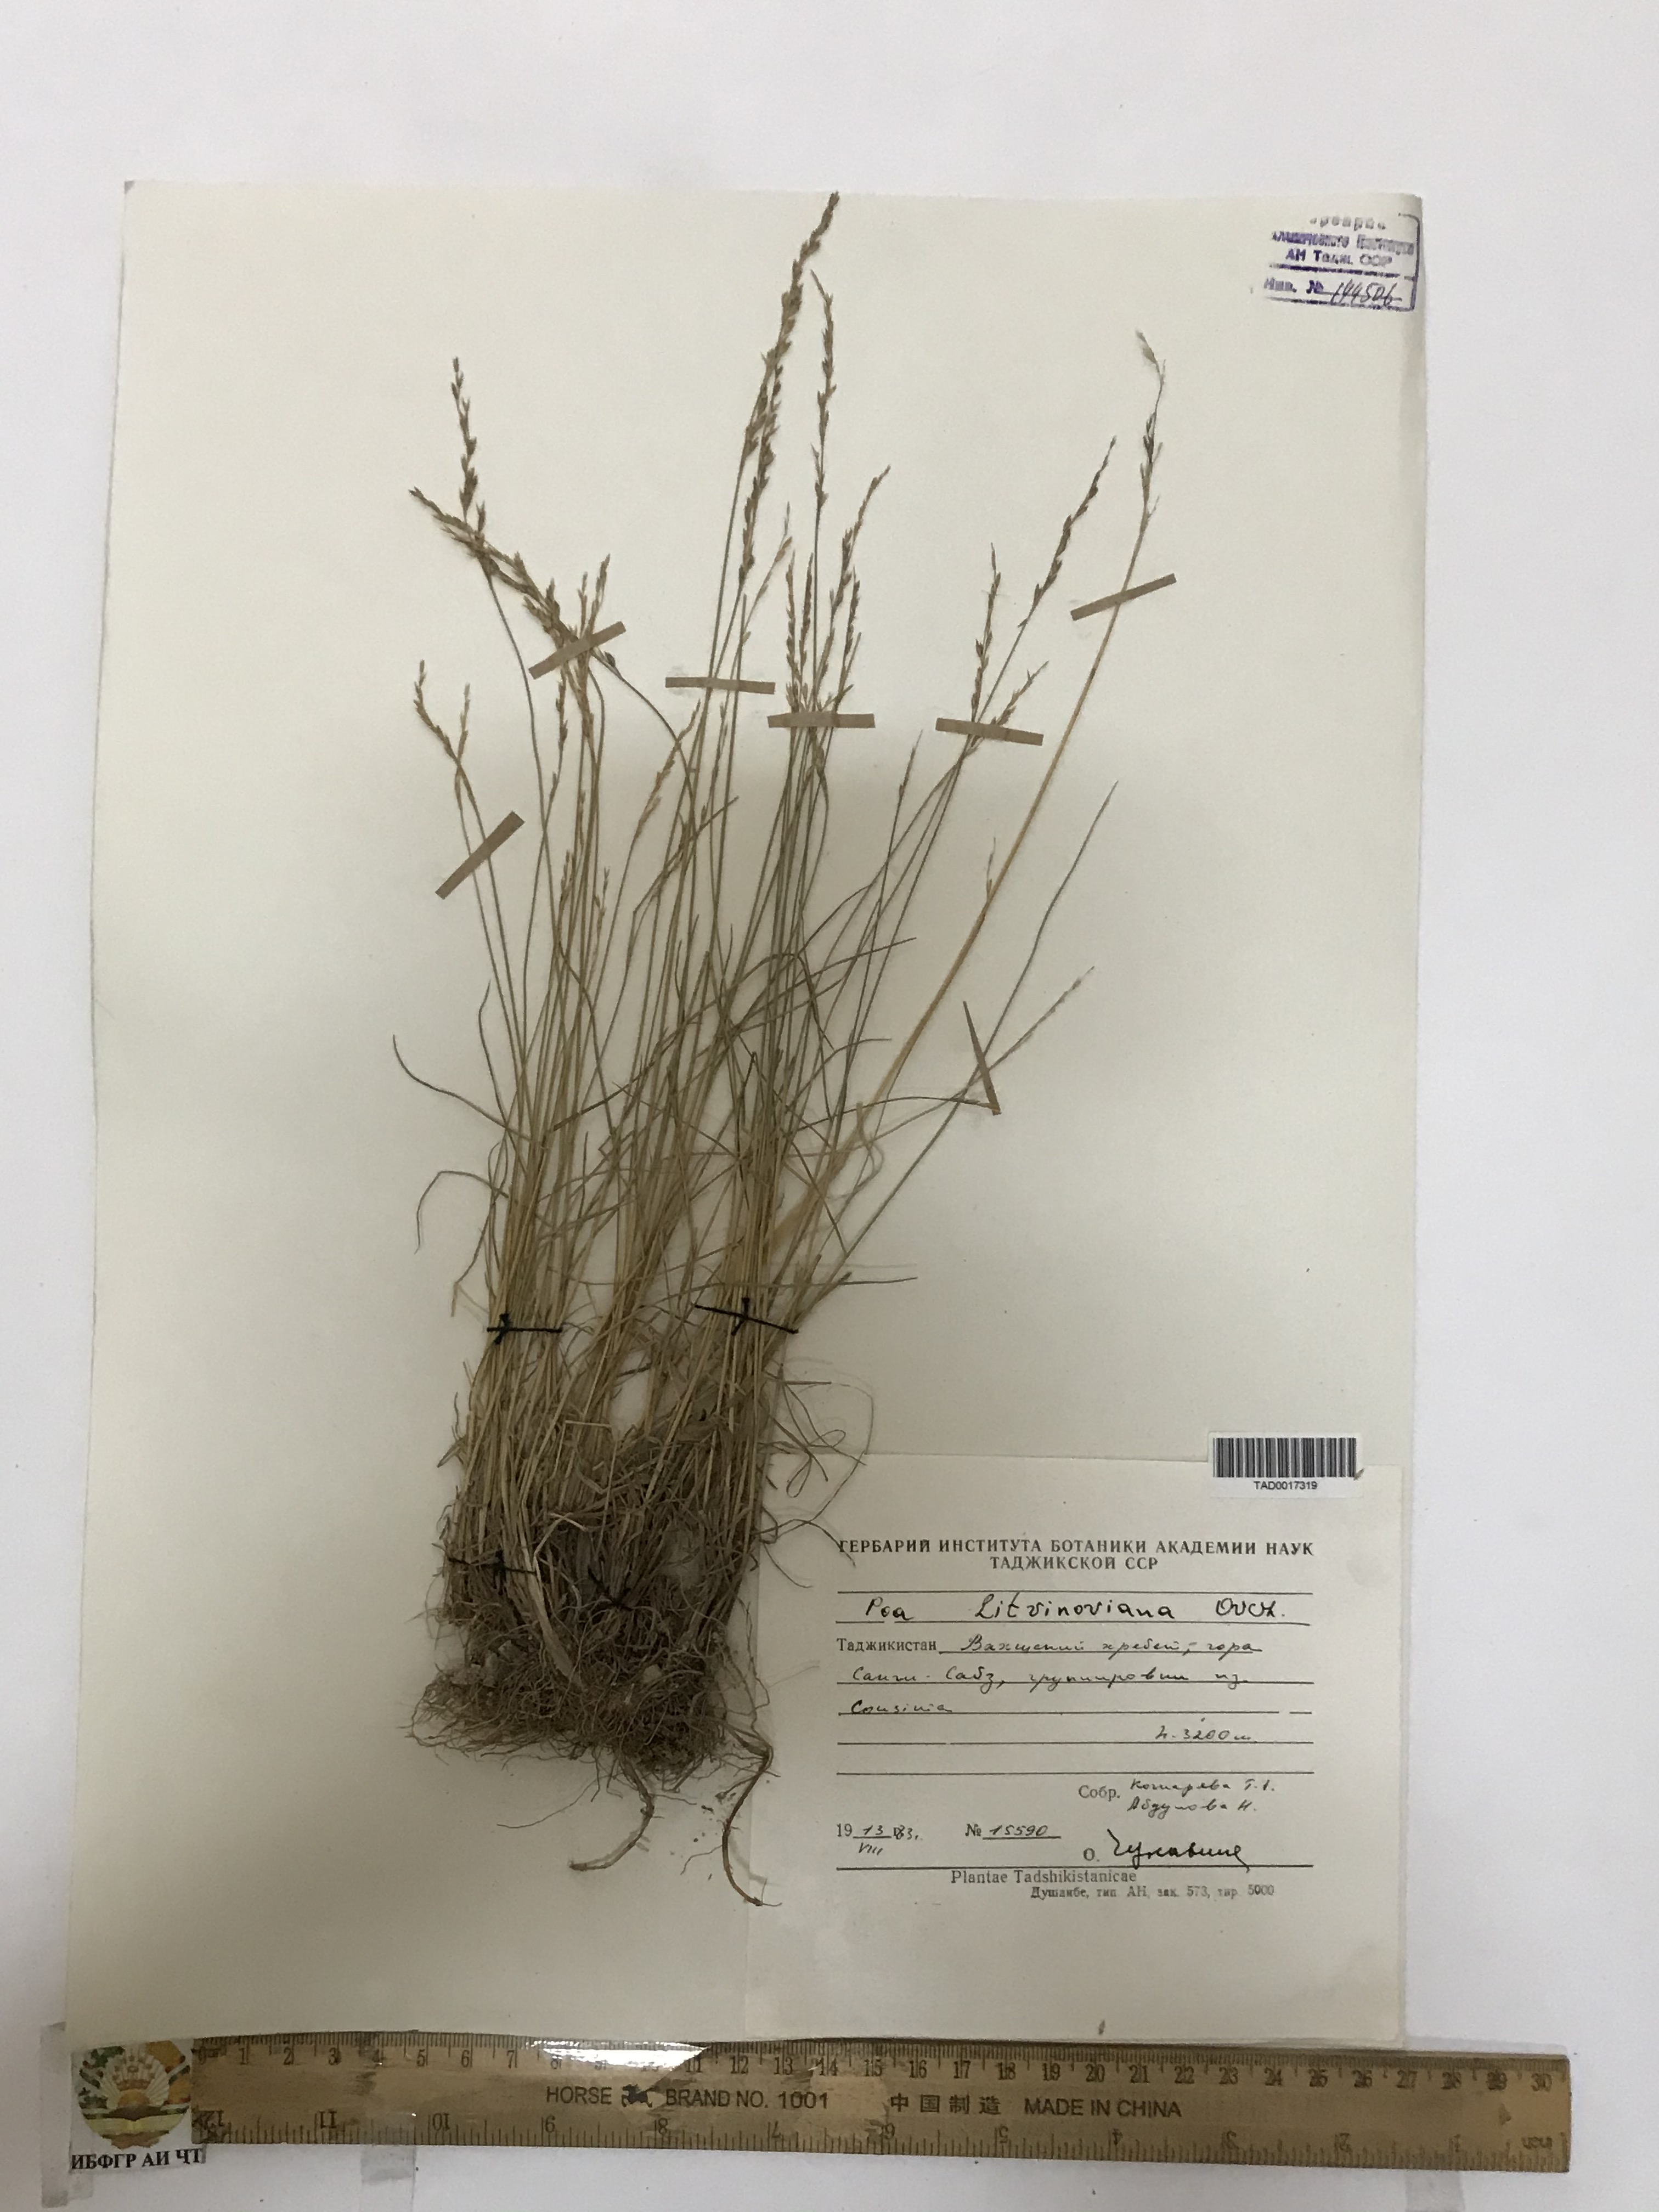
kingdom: Plantae
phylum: Tracheophyta
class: Liliopsida
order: Poales
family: Poaceae
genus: Poa
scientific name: Poa glauca
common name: Glaucous bluegrass
